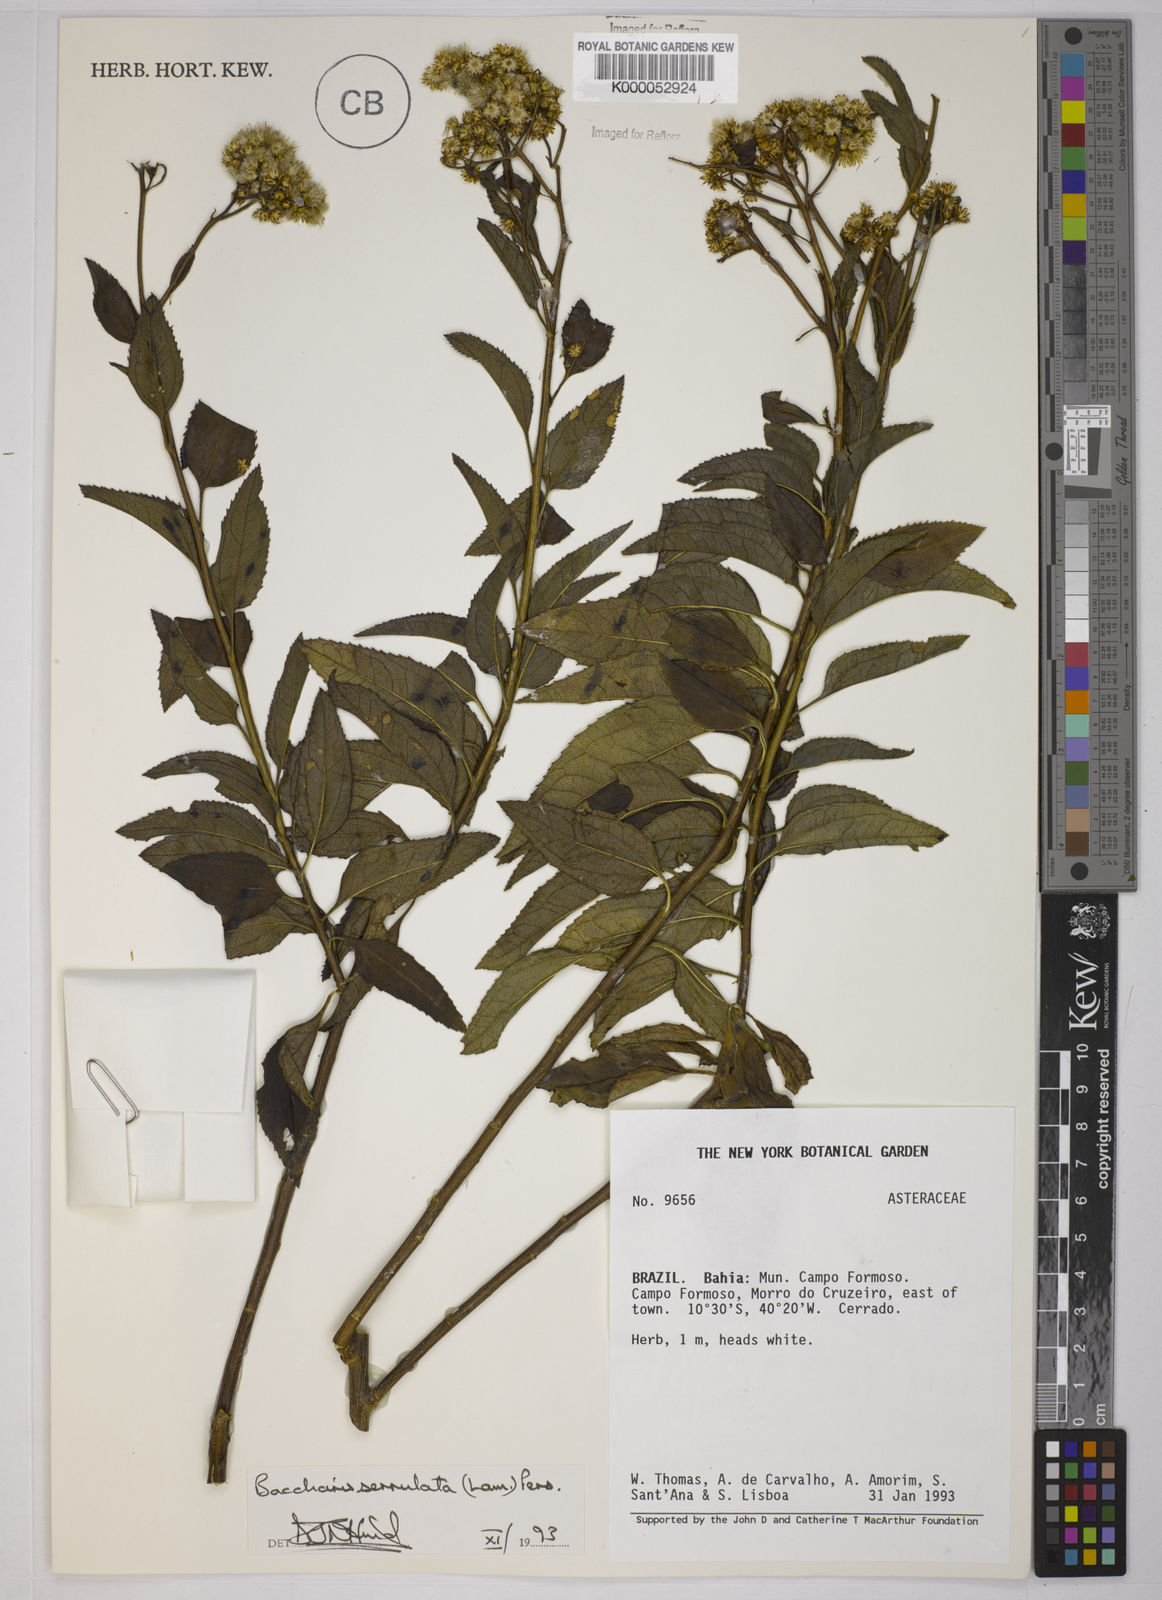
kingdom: Plantae
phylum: Tracheophyta
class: Magnoliopsida
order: Asterales
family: Asteraceae
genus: Baccharis
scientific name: Baccharis serrulata
